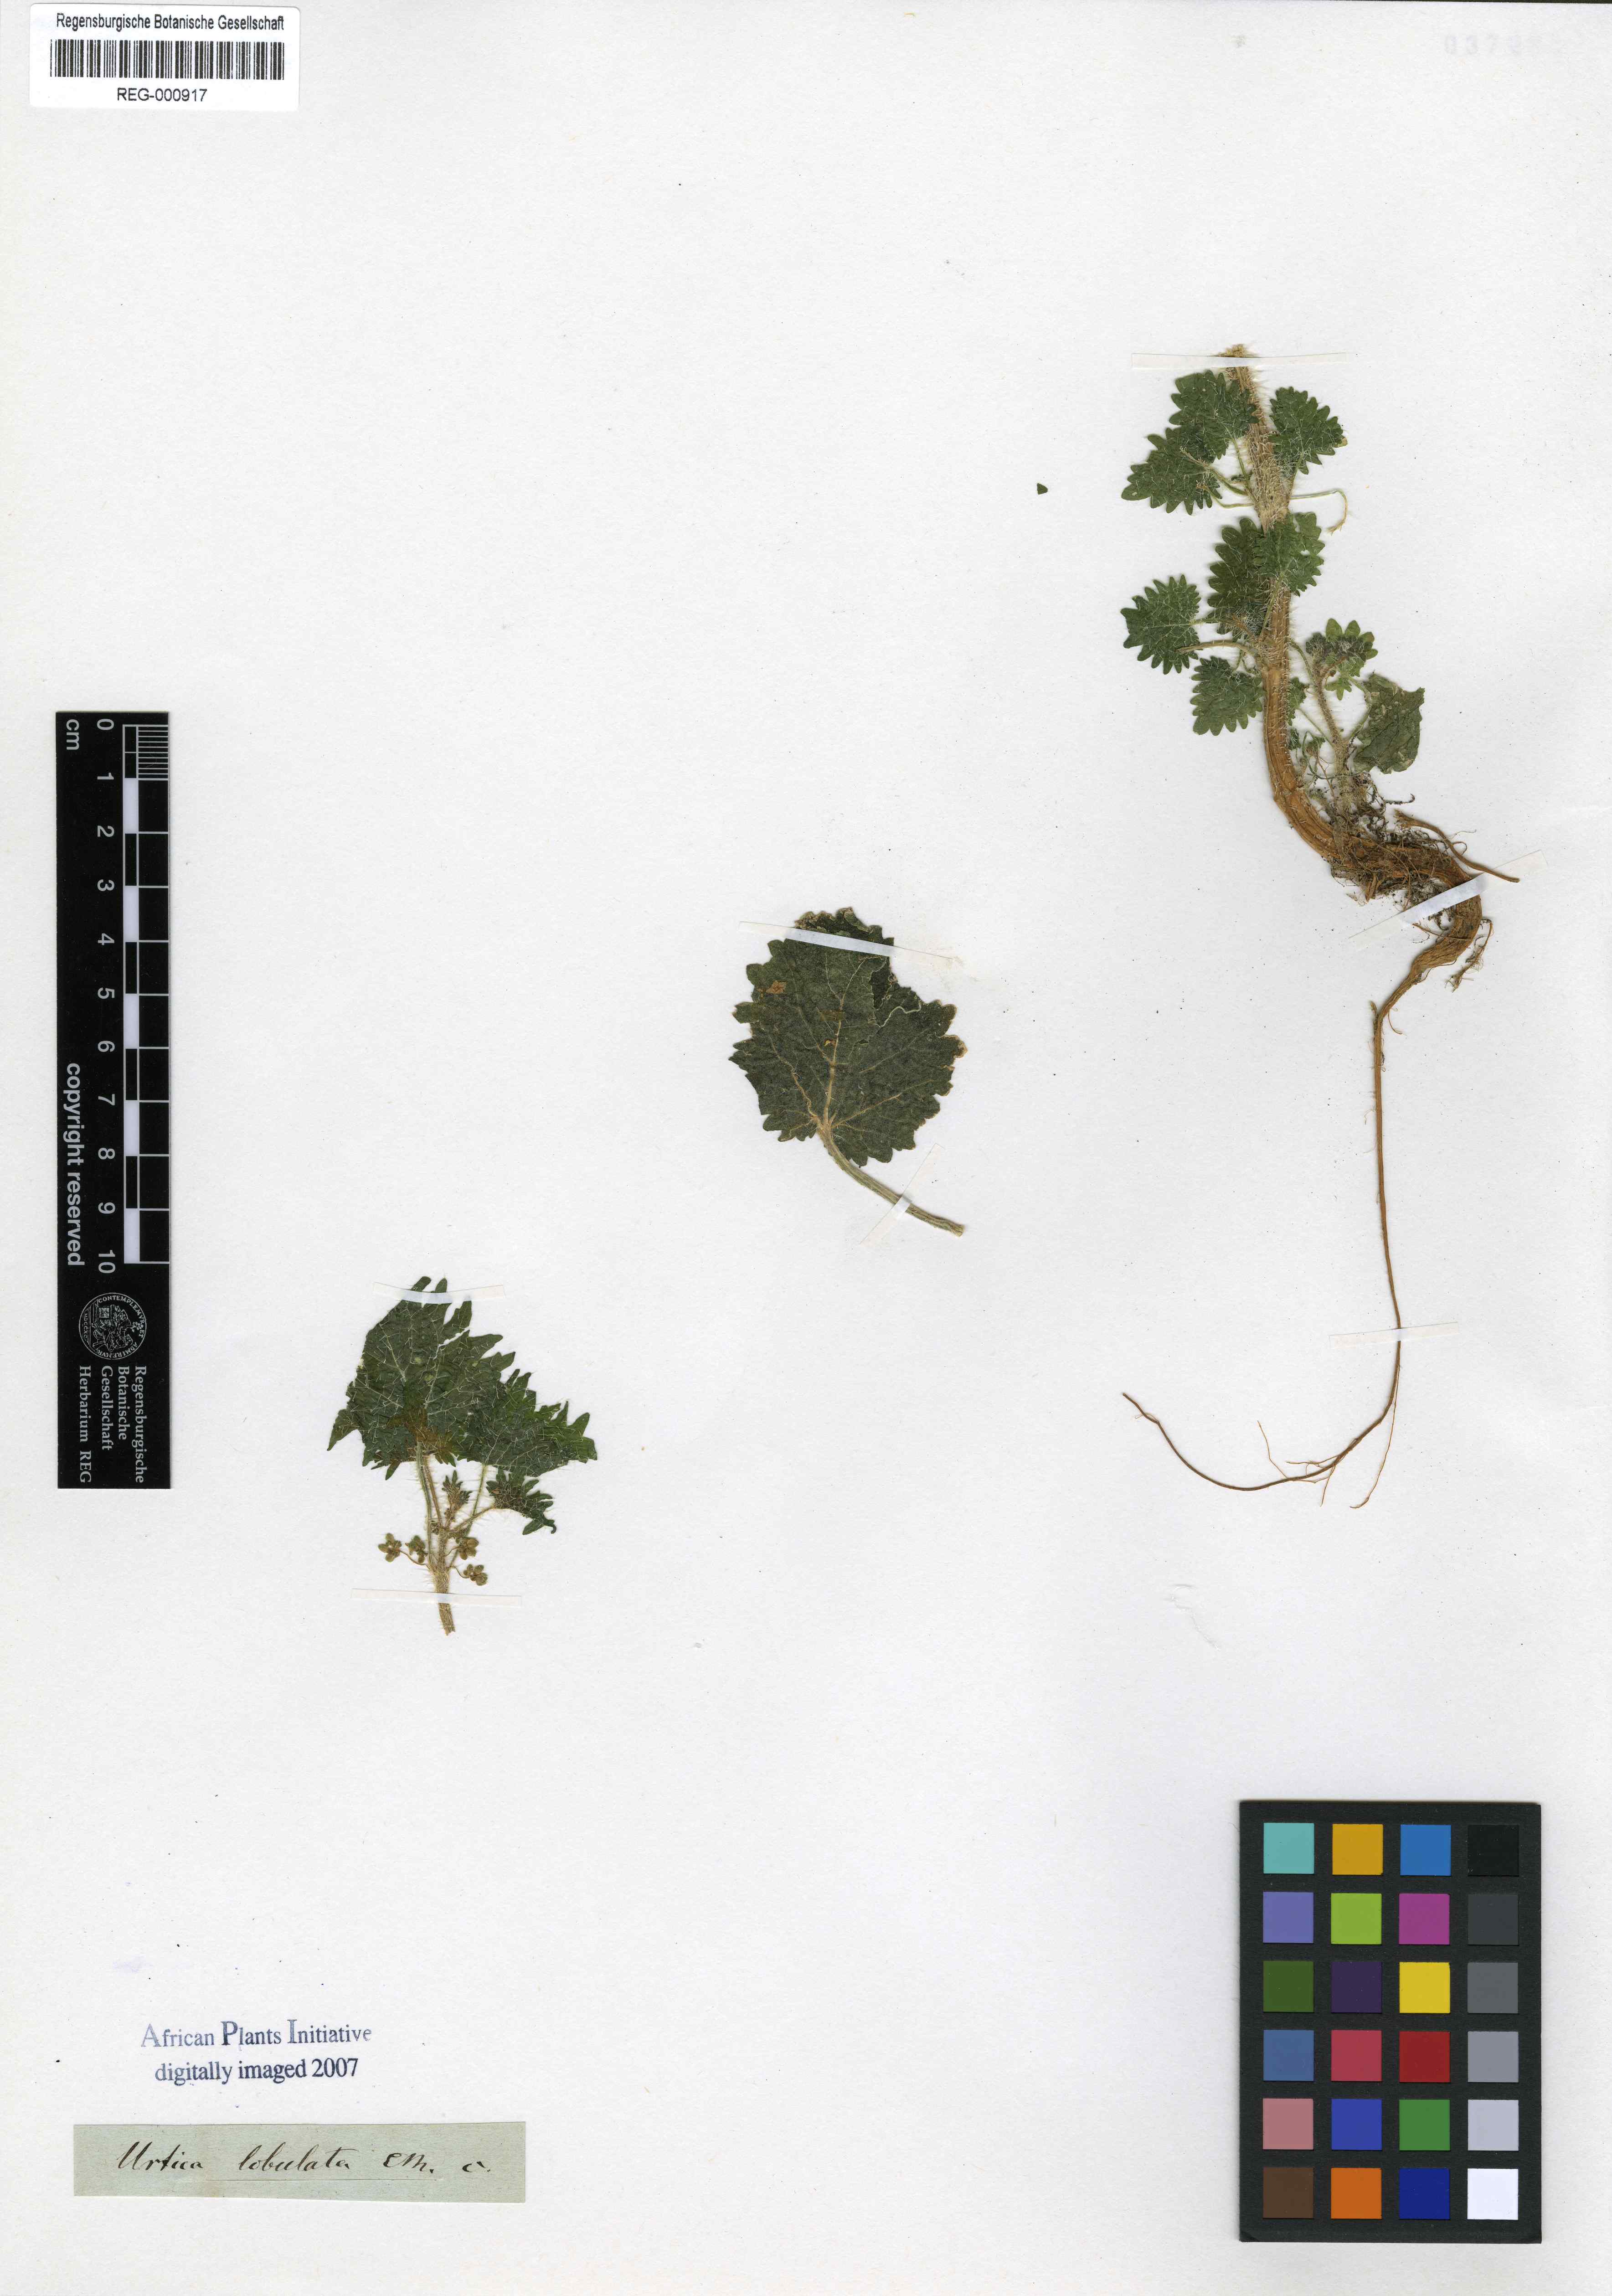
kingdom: Plantae
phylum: Tracheophyta
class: Magnoliopsida
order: Rosales
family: Urticaceae
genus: Urtica
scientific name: Urtica lobata
